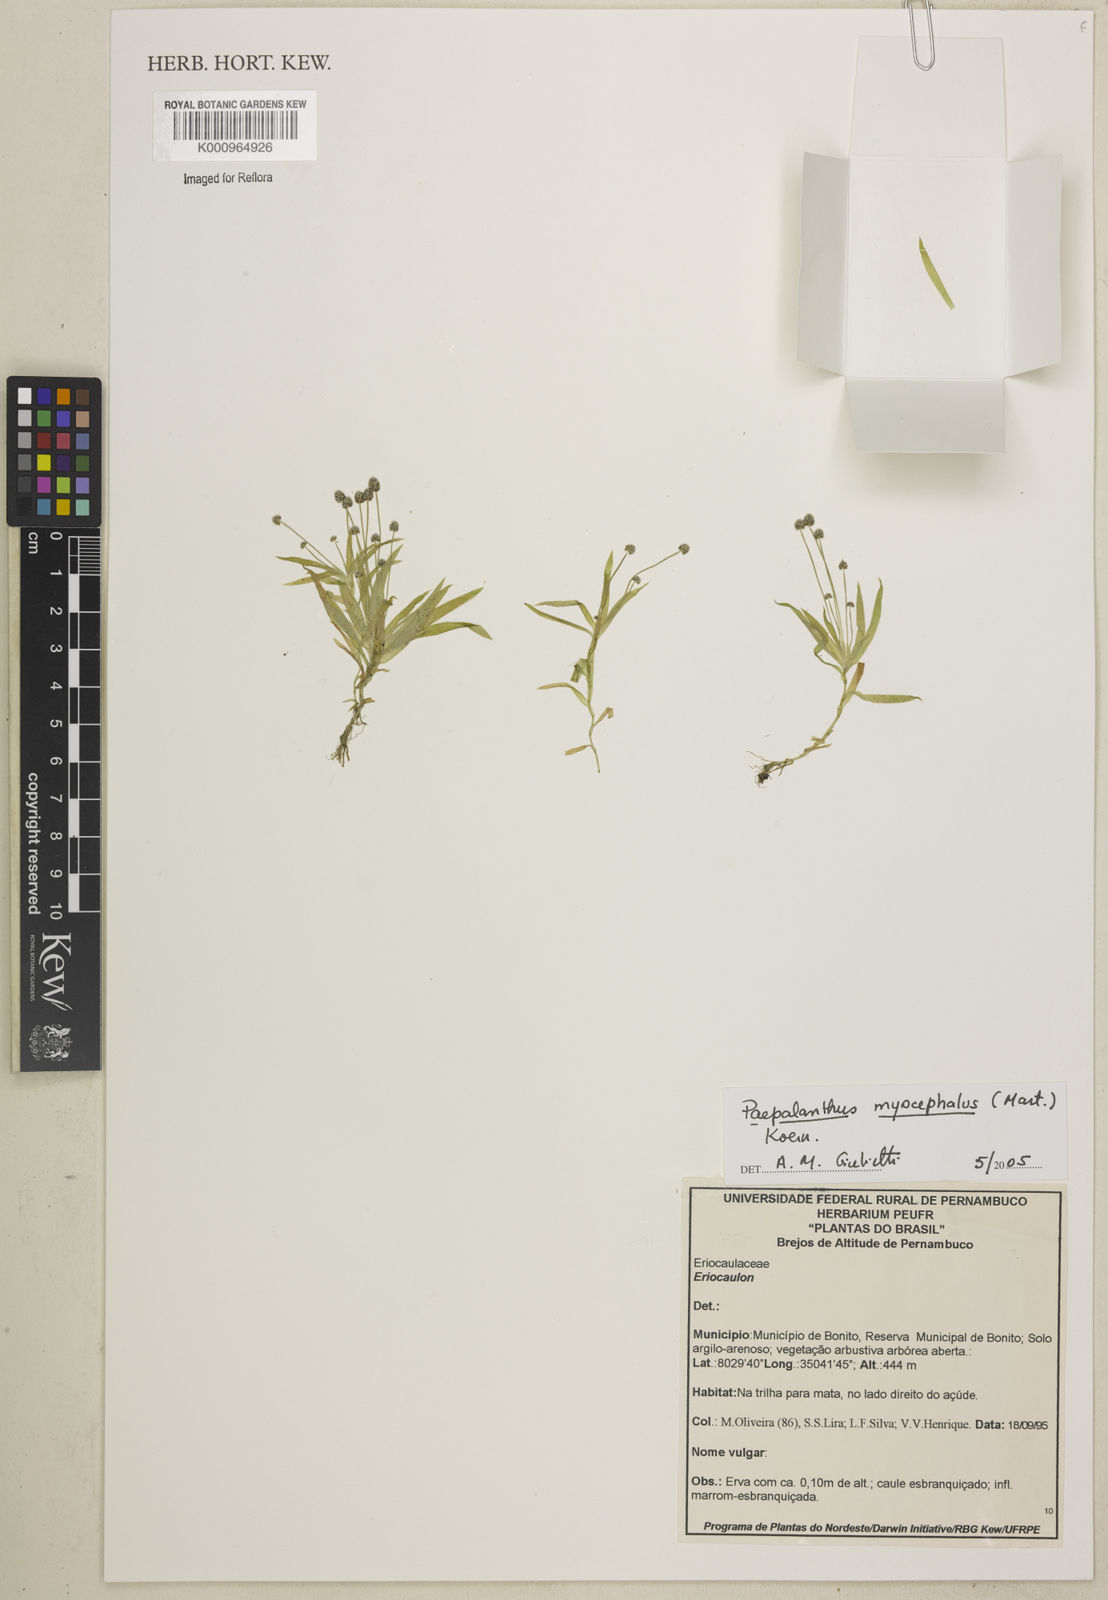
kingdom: Plantae
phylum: Tracheophyta
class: Liliopsida
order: Poales
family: Eriocaulaceae
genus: Paepalanthus
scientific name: Paepalanthus
